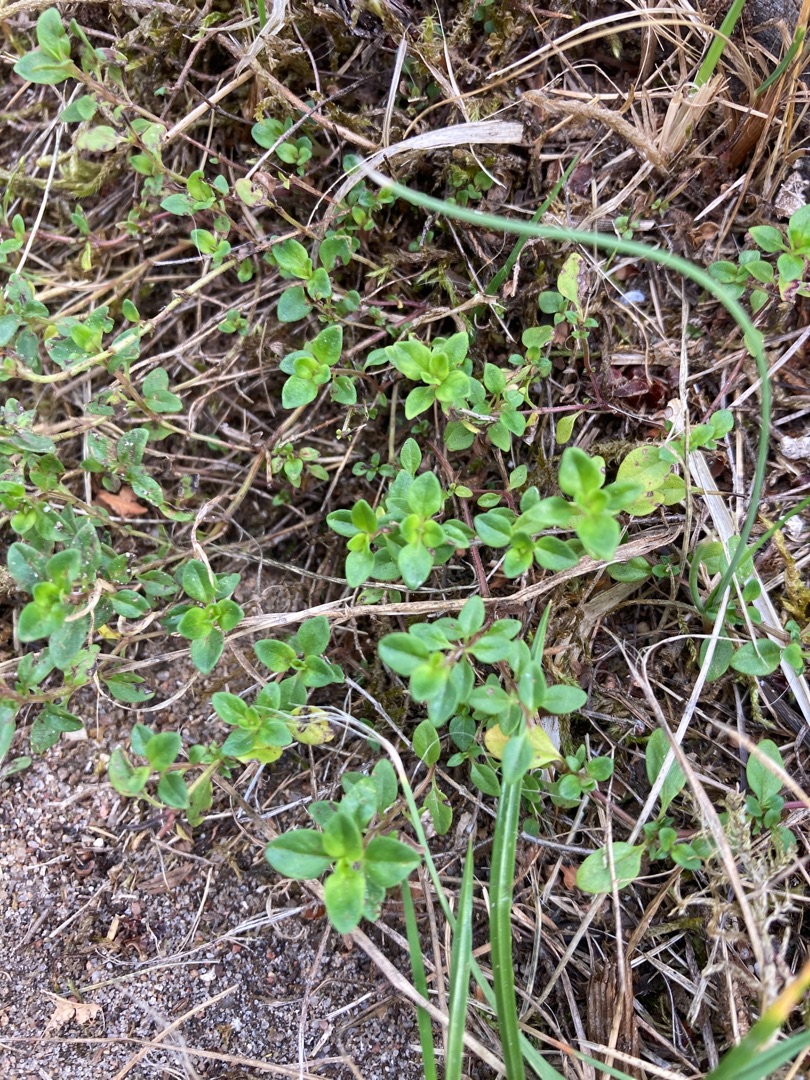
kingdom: Plantae
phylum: Tracheophyta
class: Magnoliopsida
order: Lamiales
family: Lamiaceae
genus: Thymus
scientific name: Thymus pulegioides
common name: Bredbladet timian
